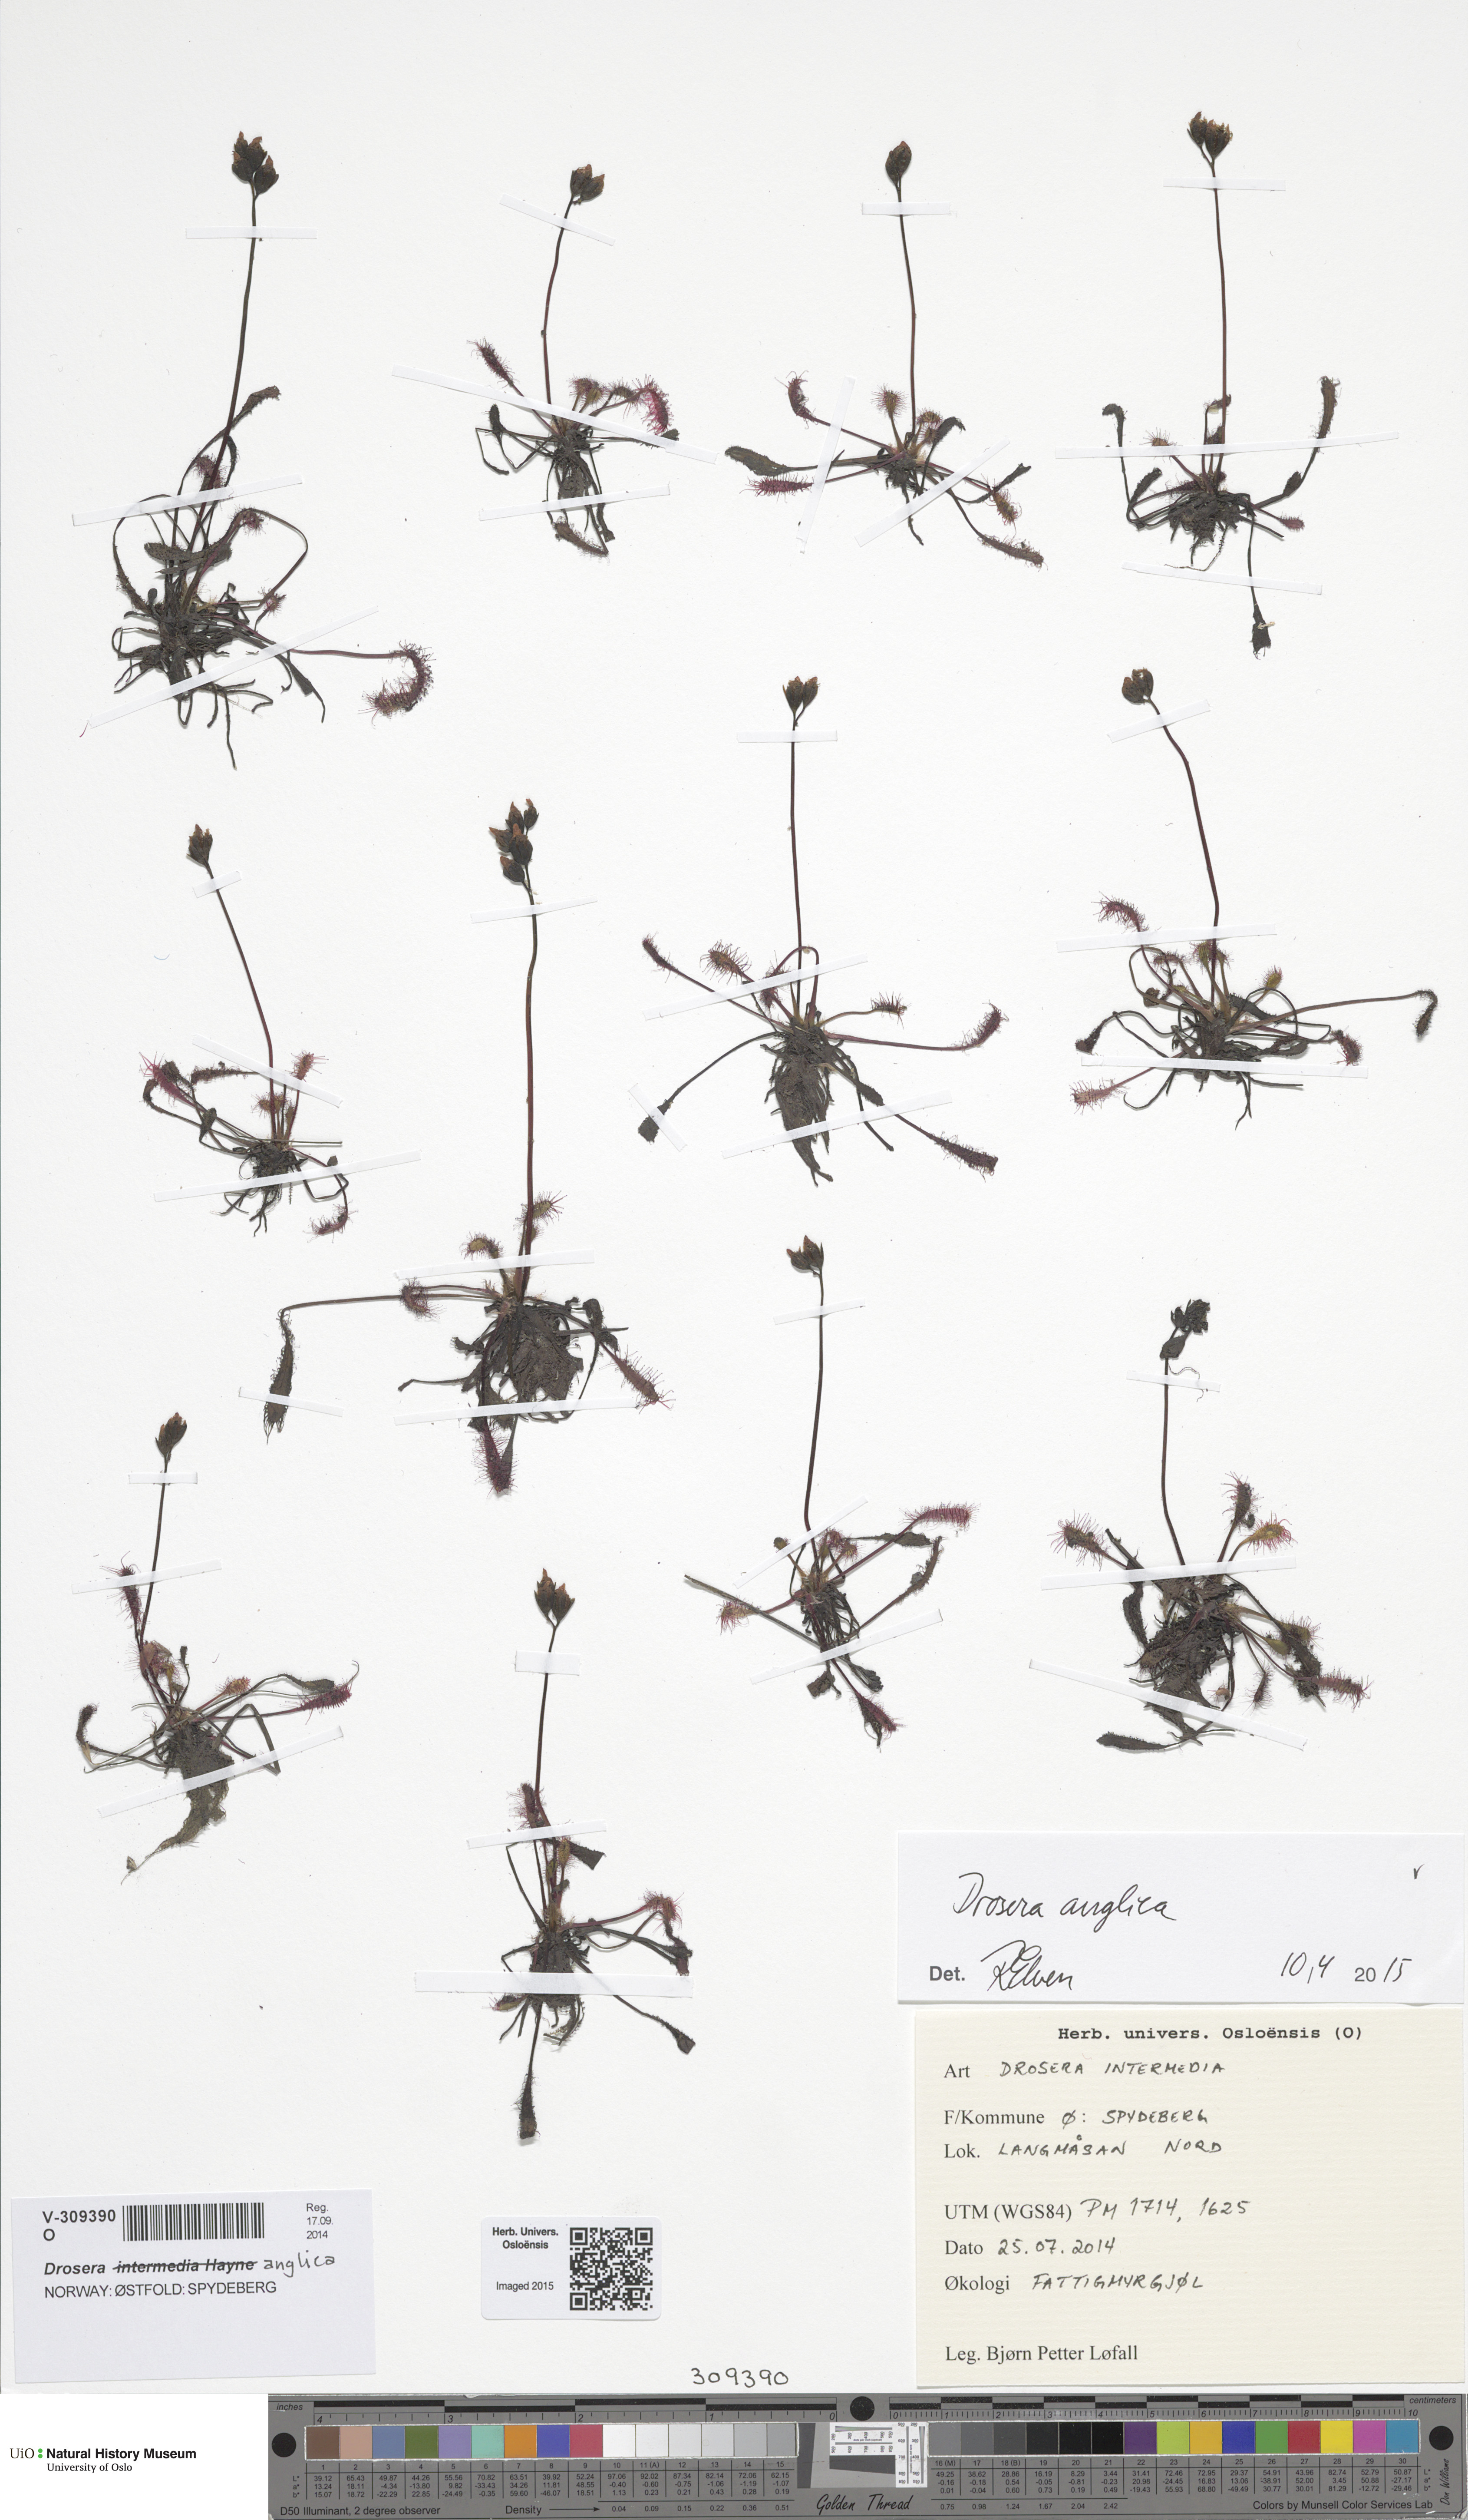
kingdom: Plantae
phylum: Tracheophyta
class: Magnoliopsida
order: Caryophyllales
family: Droseraceae
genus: Drosera
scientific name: Drosera anglica
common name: Great sundew
